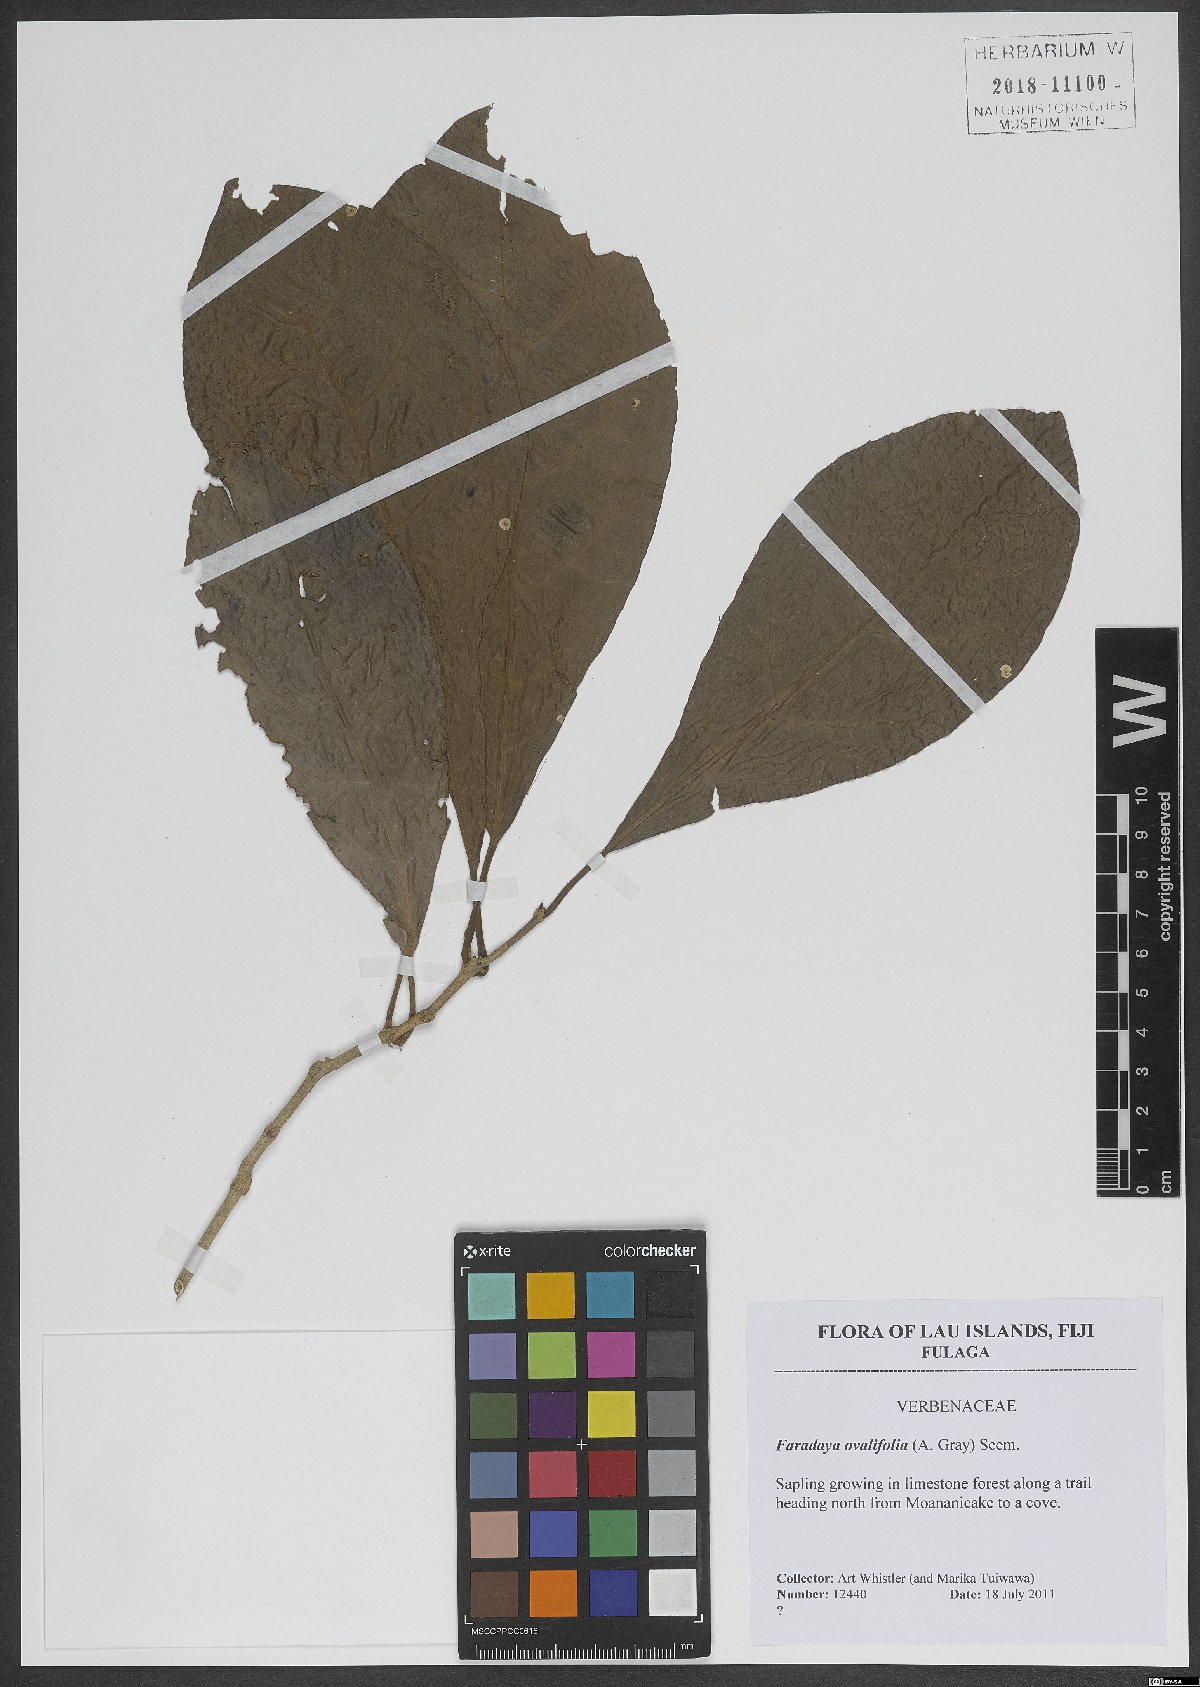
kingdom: Plantae
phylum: Tracheophyta
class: Magnoliopsida
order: Lamiales
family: Lamiaceae
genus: Oxera
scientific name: Oxera amicorum
